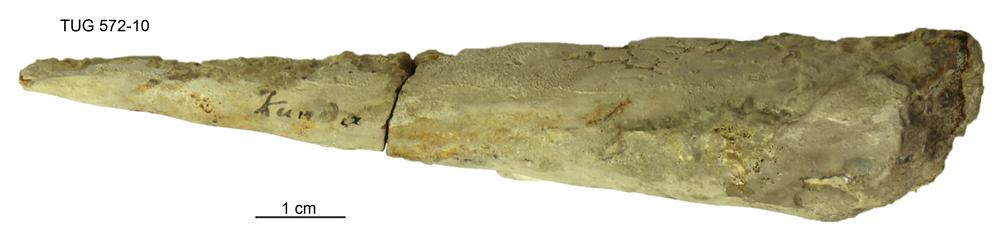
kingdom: Animalia
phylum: Mollusca
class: Cephalopoda
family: Endoceratidae
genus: Endoceras
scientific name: Endoceras
